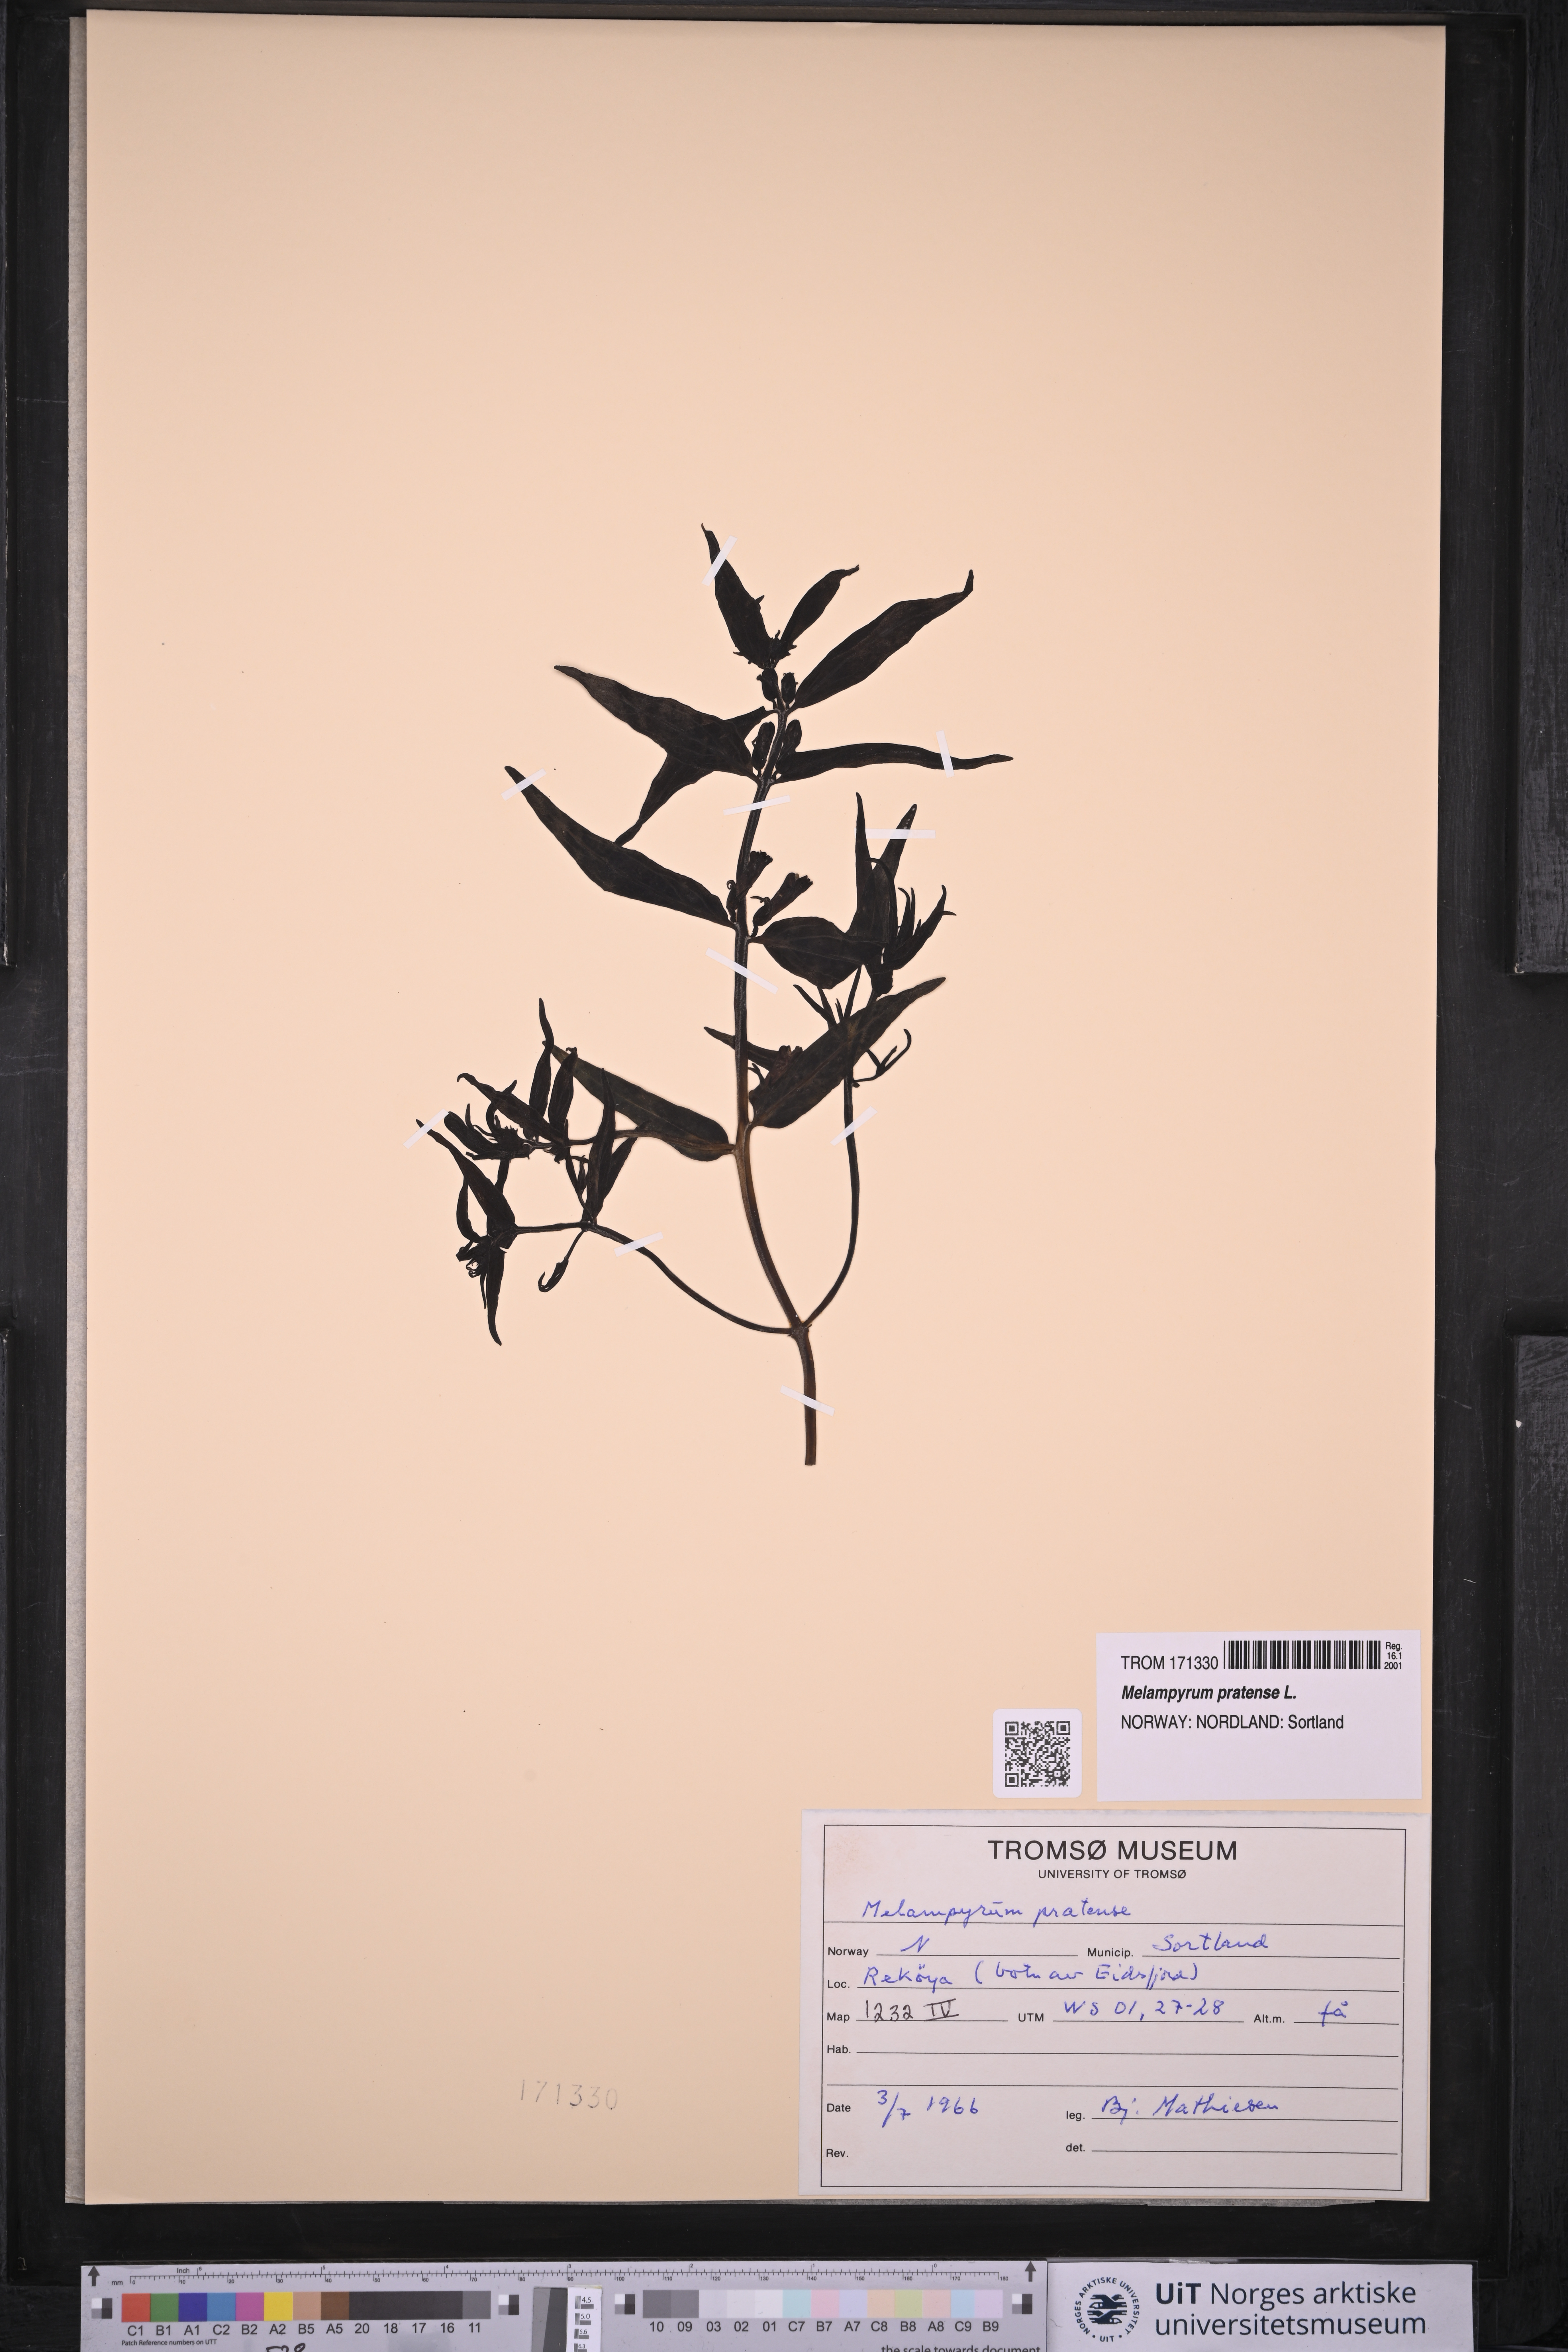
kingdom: Plantae
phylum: Tracheophyta
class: Magnoliopsida
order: Lamiales
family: Orobanchaceae
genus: Melampyrum
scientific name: Melampyrum pratense
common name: Common cow-wheat
